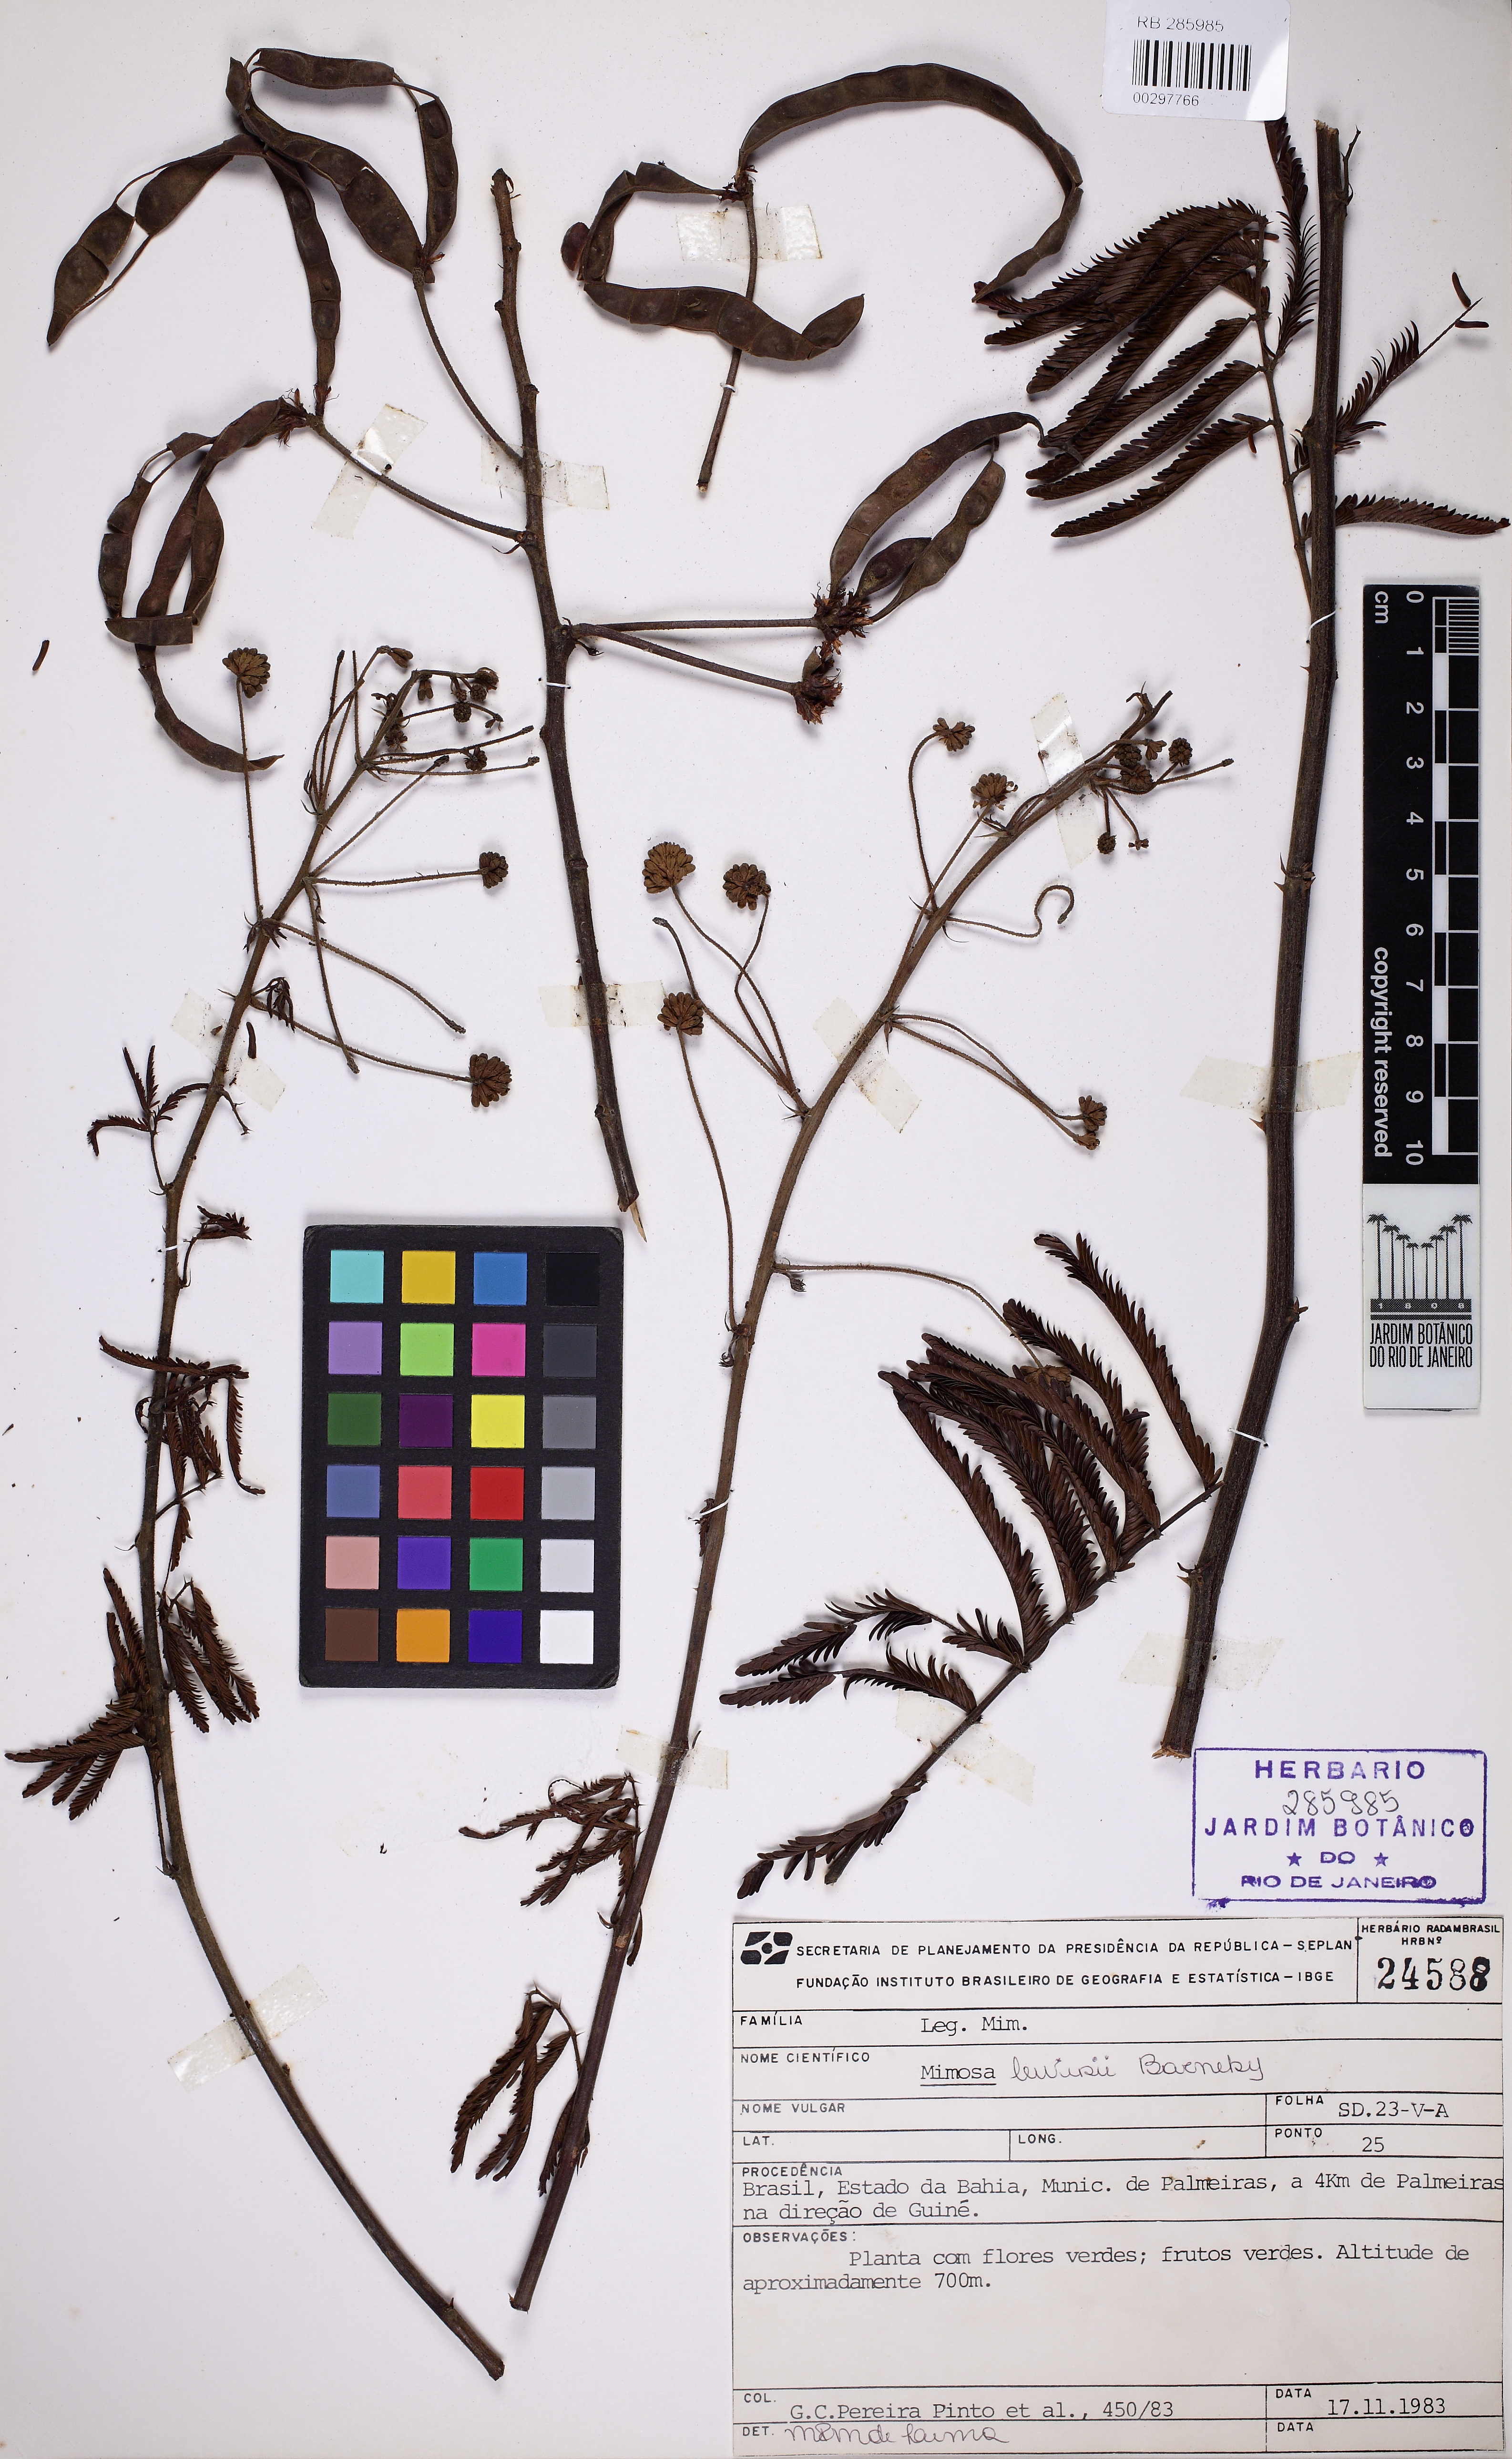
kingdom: Plantae
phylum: Tracheophyta
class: Magnoliopsida
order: Fabales
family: Fabaceae
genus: Mimosa
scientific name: Mimosa lewisii
